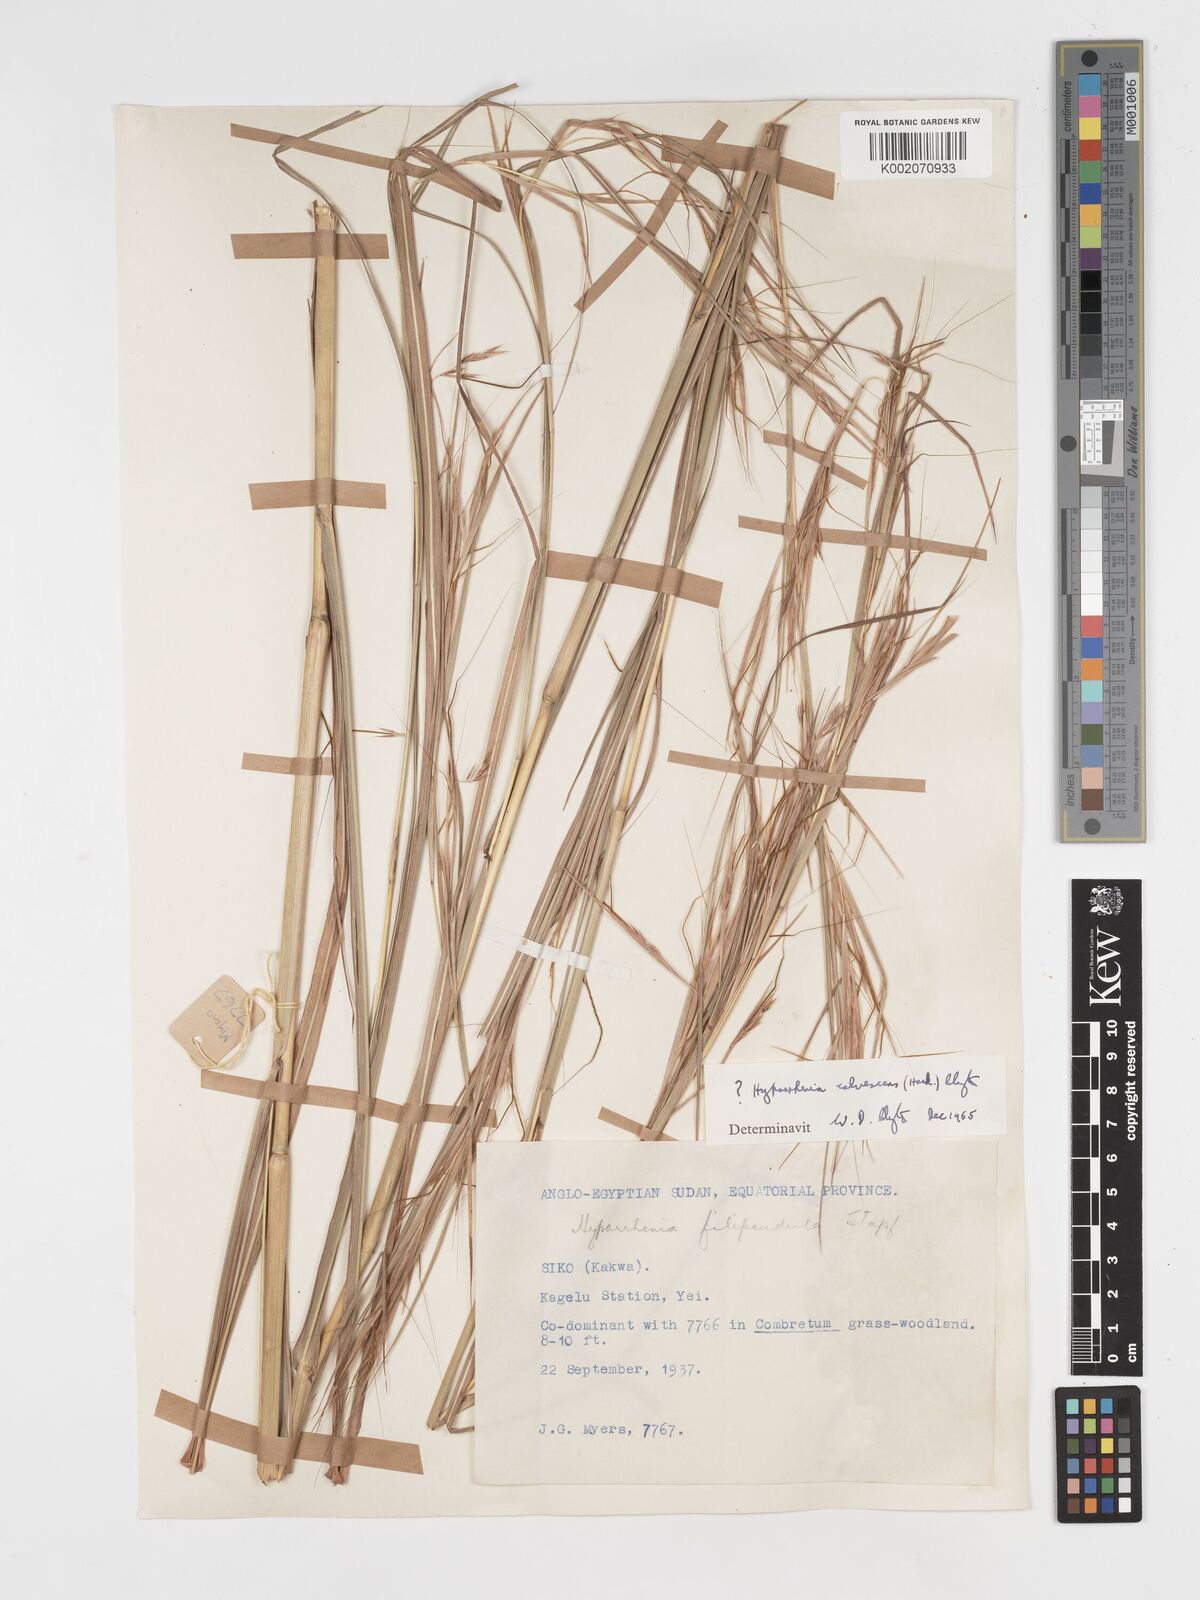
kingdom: Plantae
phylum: Tracheophyta
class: Liliopsida
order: Poales
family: Poaceae
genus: Hyparrhenia
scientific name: Hyparrhenia figariana
